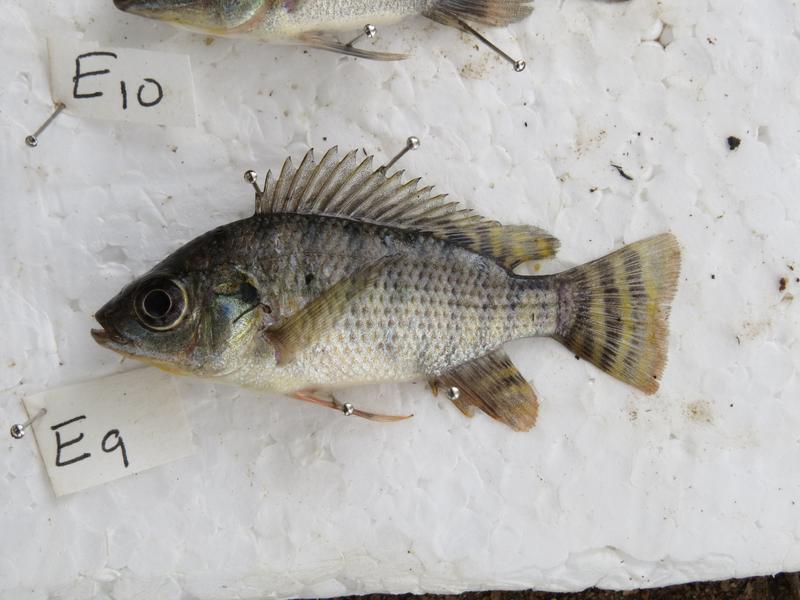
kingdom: Animalia
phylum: Chordata
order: Perciformes
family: Cichlidae
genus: Oreochromis
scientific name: Oreochromis niloticus
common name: Nile tilapia
